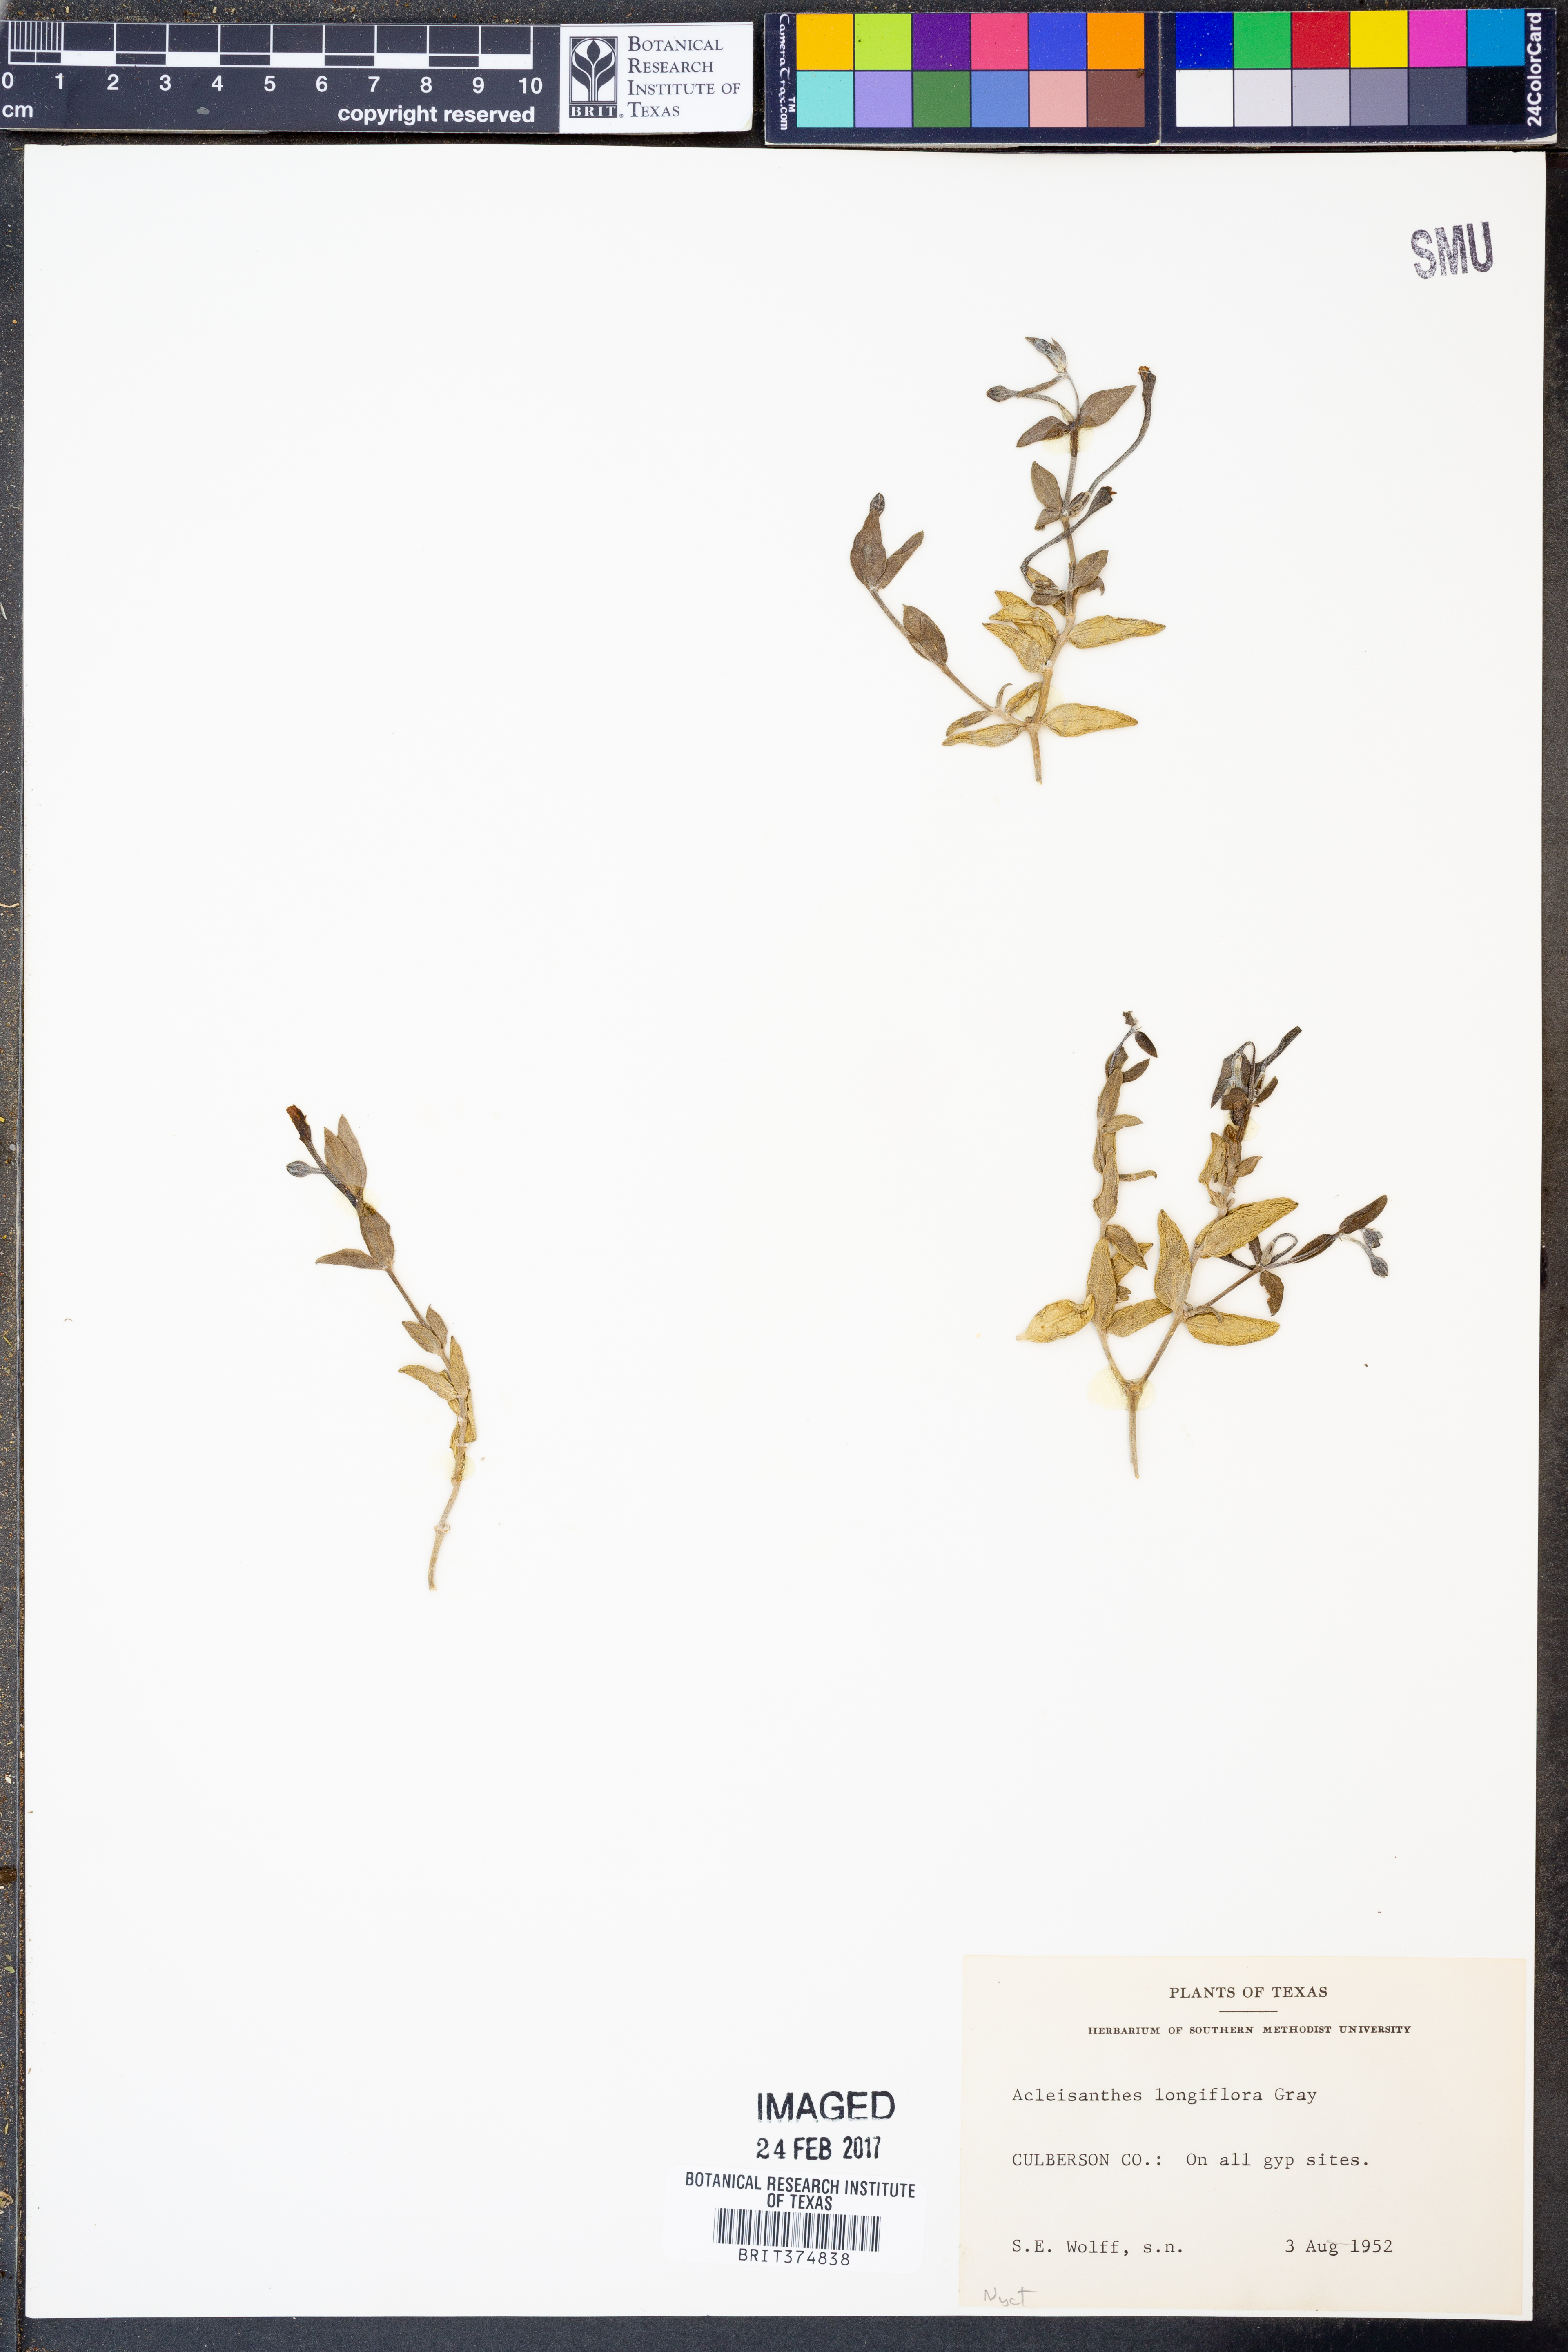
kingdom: Plantae
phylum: Tracheophyta
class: Magnoliopsida
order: Caryophyllales
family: Nyctaginaceae
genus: Acleisanthes
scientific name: Acleisanthes longiflora
